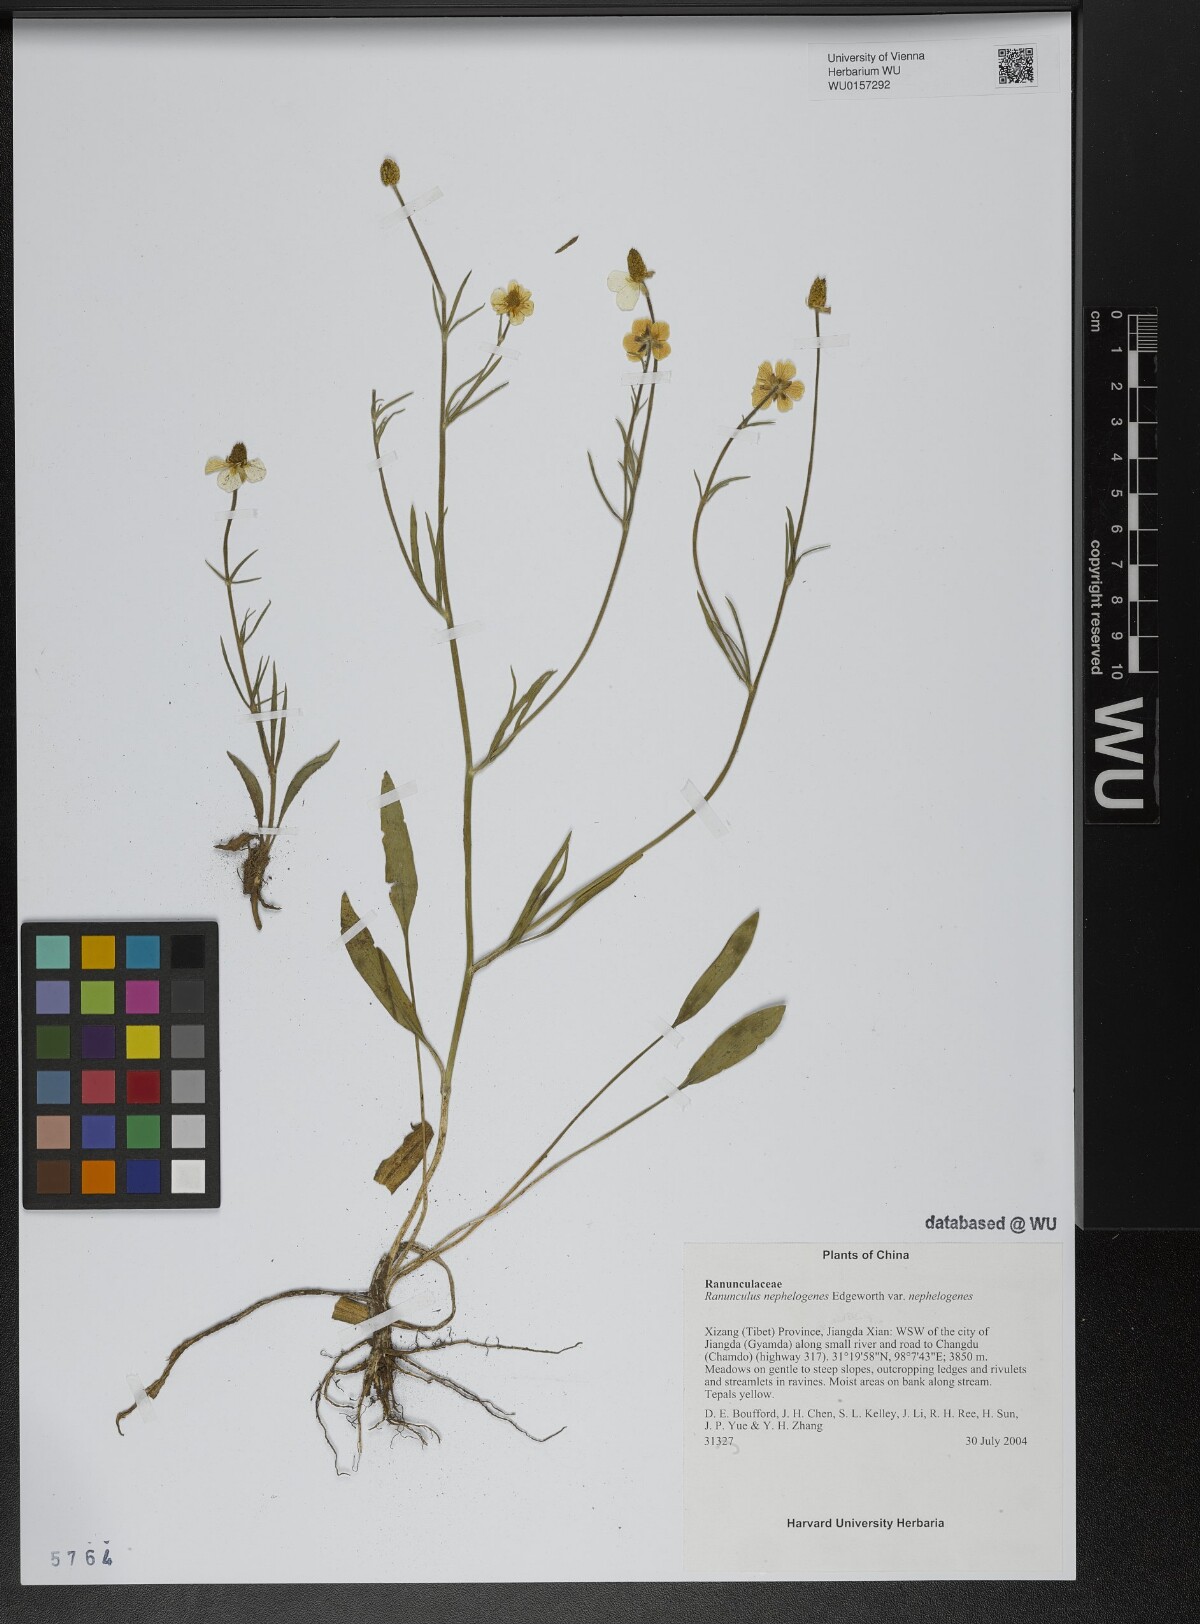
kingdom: Plantae
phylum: Tracheophyta
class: Magnoliopsida
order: Ranunculales
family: Ranunculaceae
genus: Ranunculus
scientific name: Ranunculus nephelogenes
